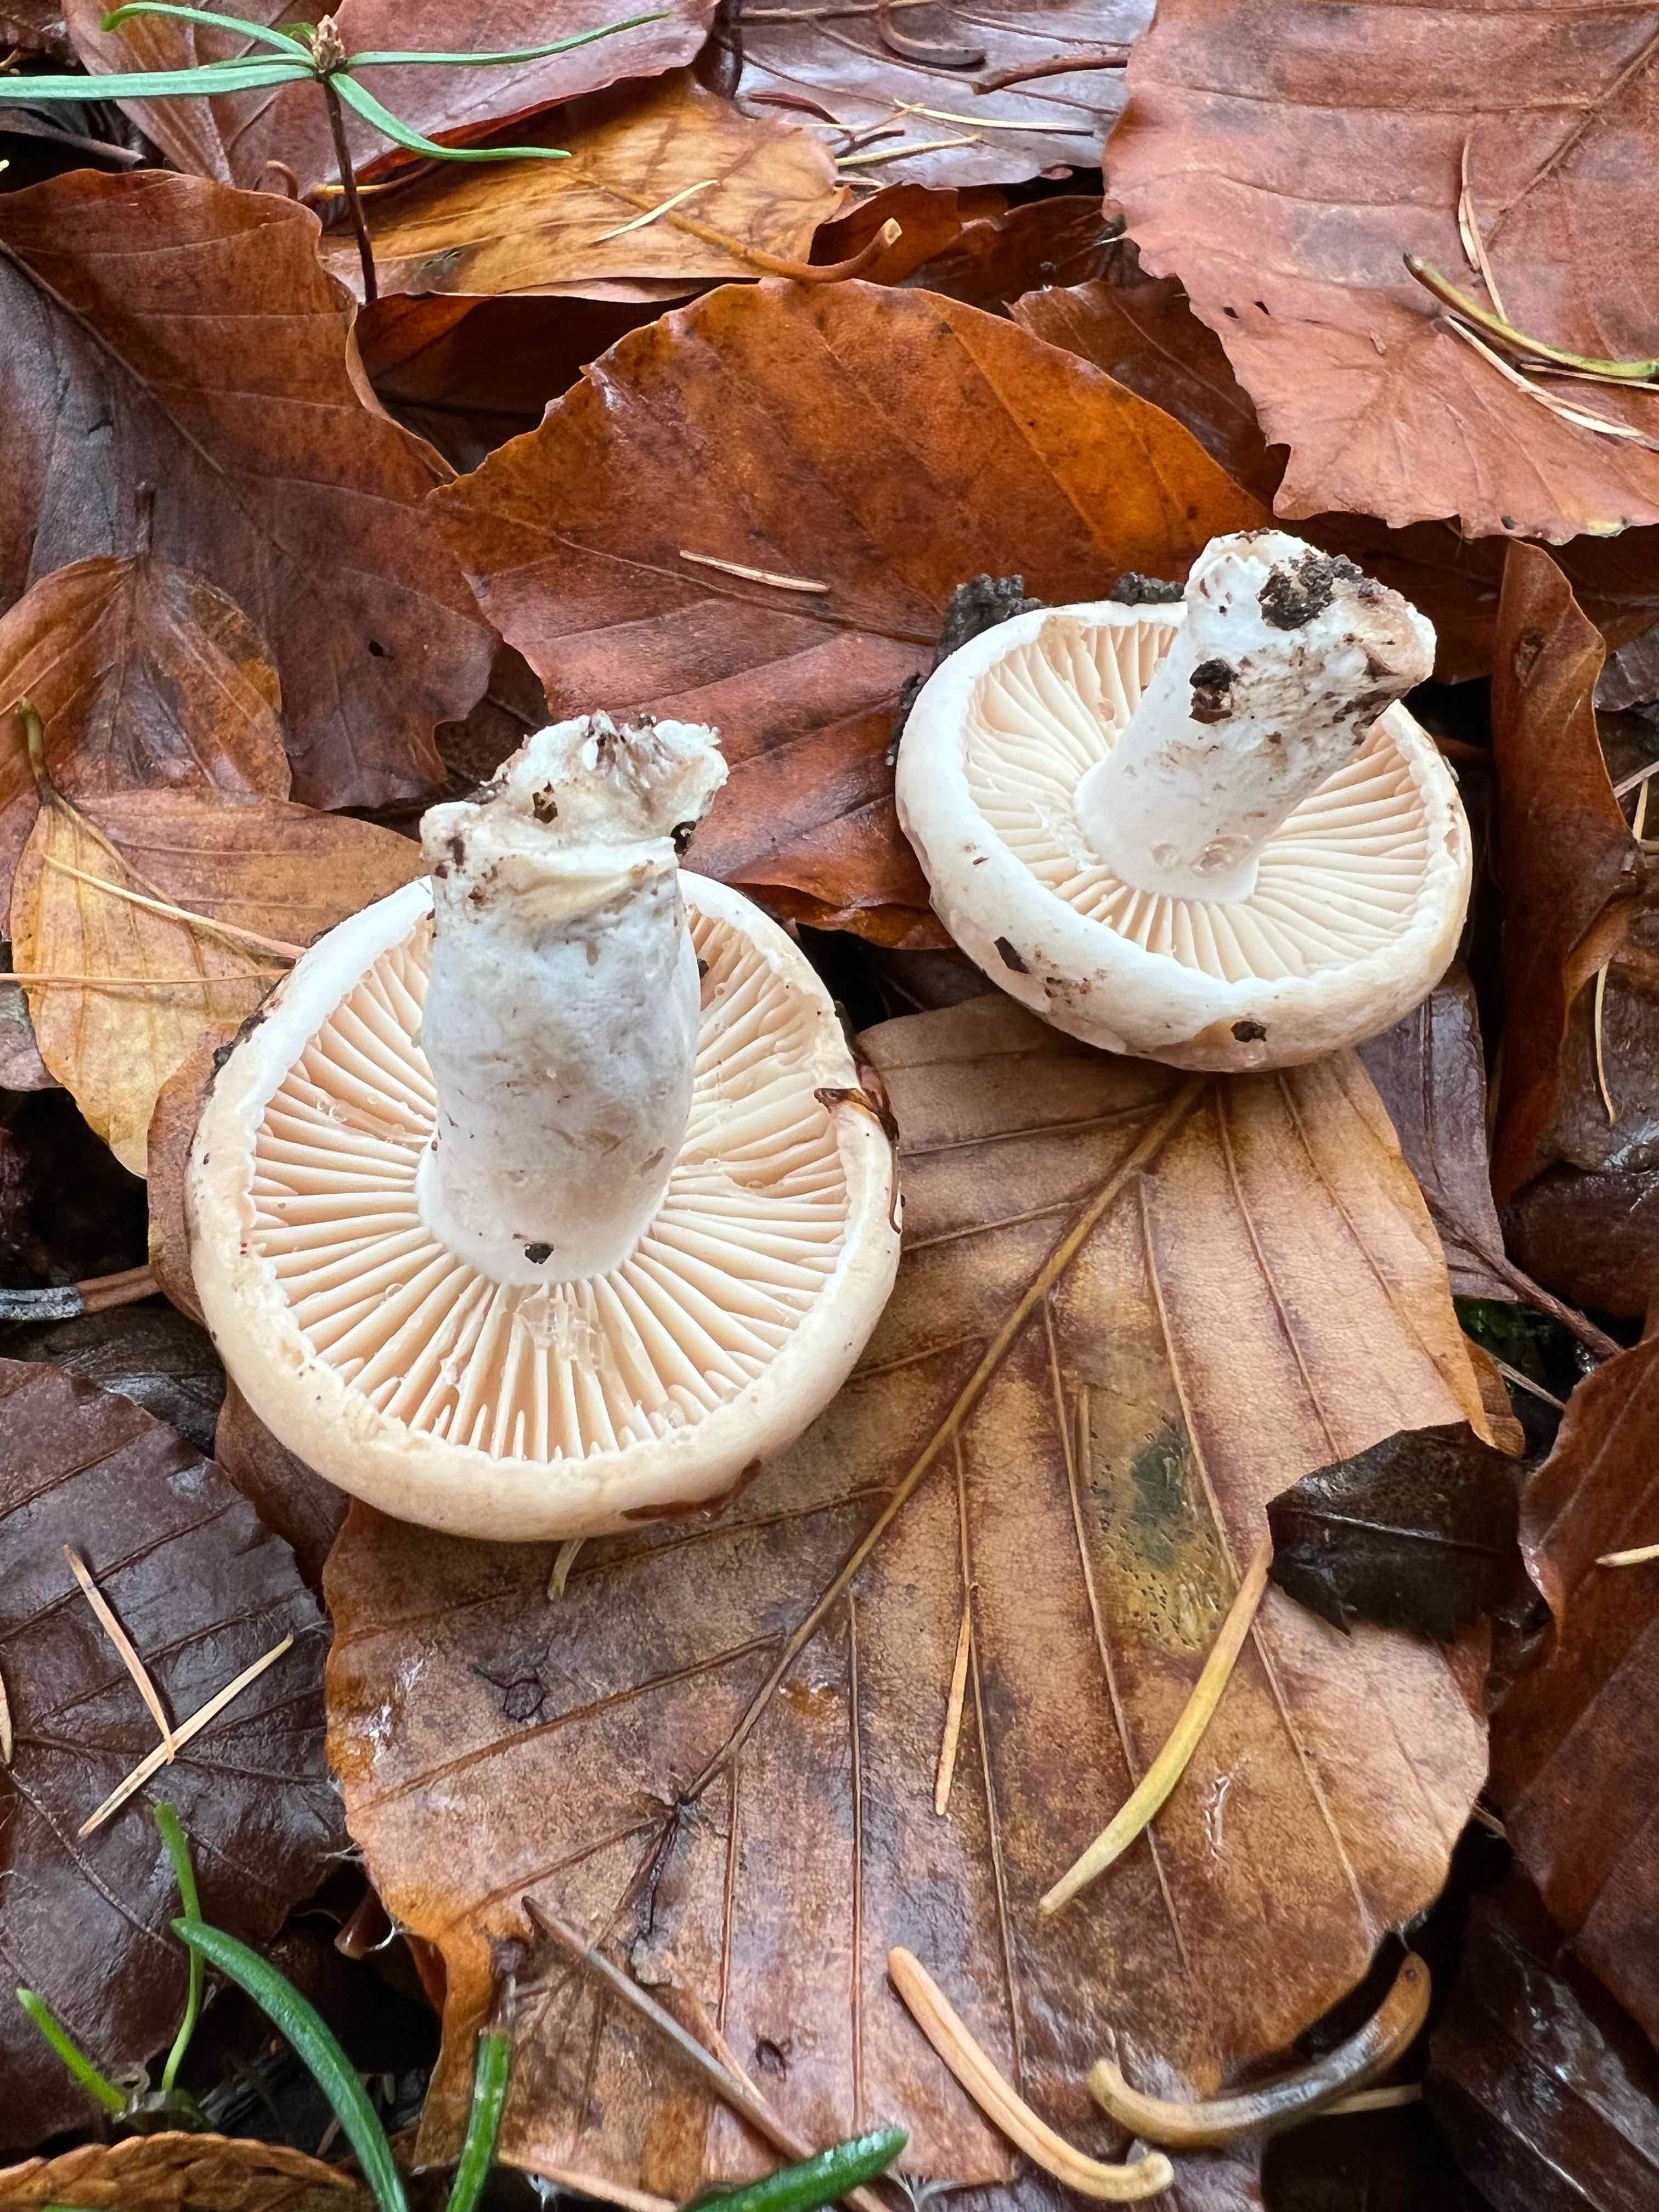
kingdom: Fungi
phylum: Basidiomycota
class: Agaricomycetes
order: Russulales
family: Russulaceae
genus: Russula
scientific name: Russula adusta
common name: sværtende skørhat
